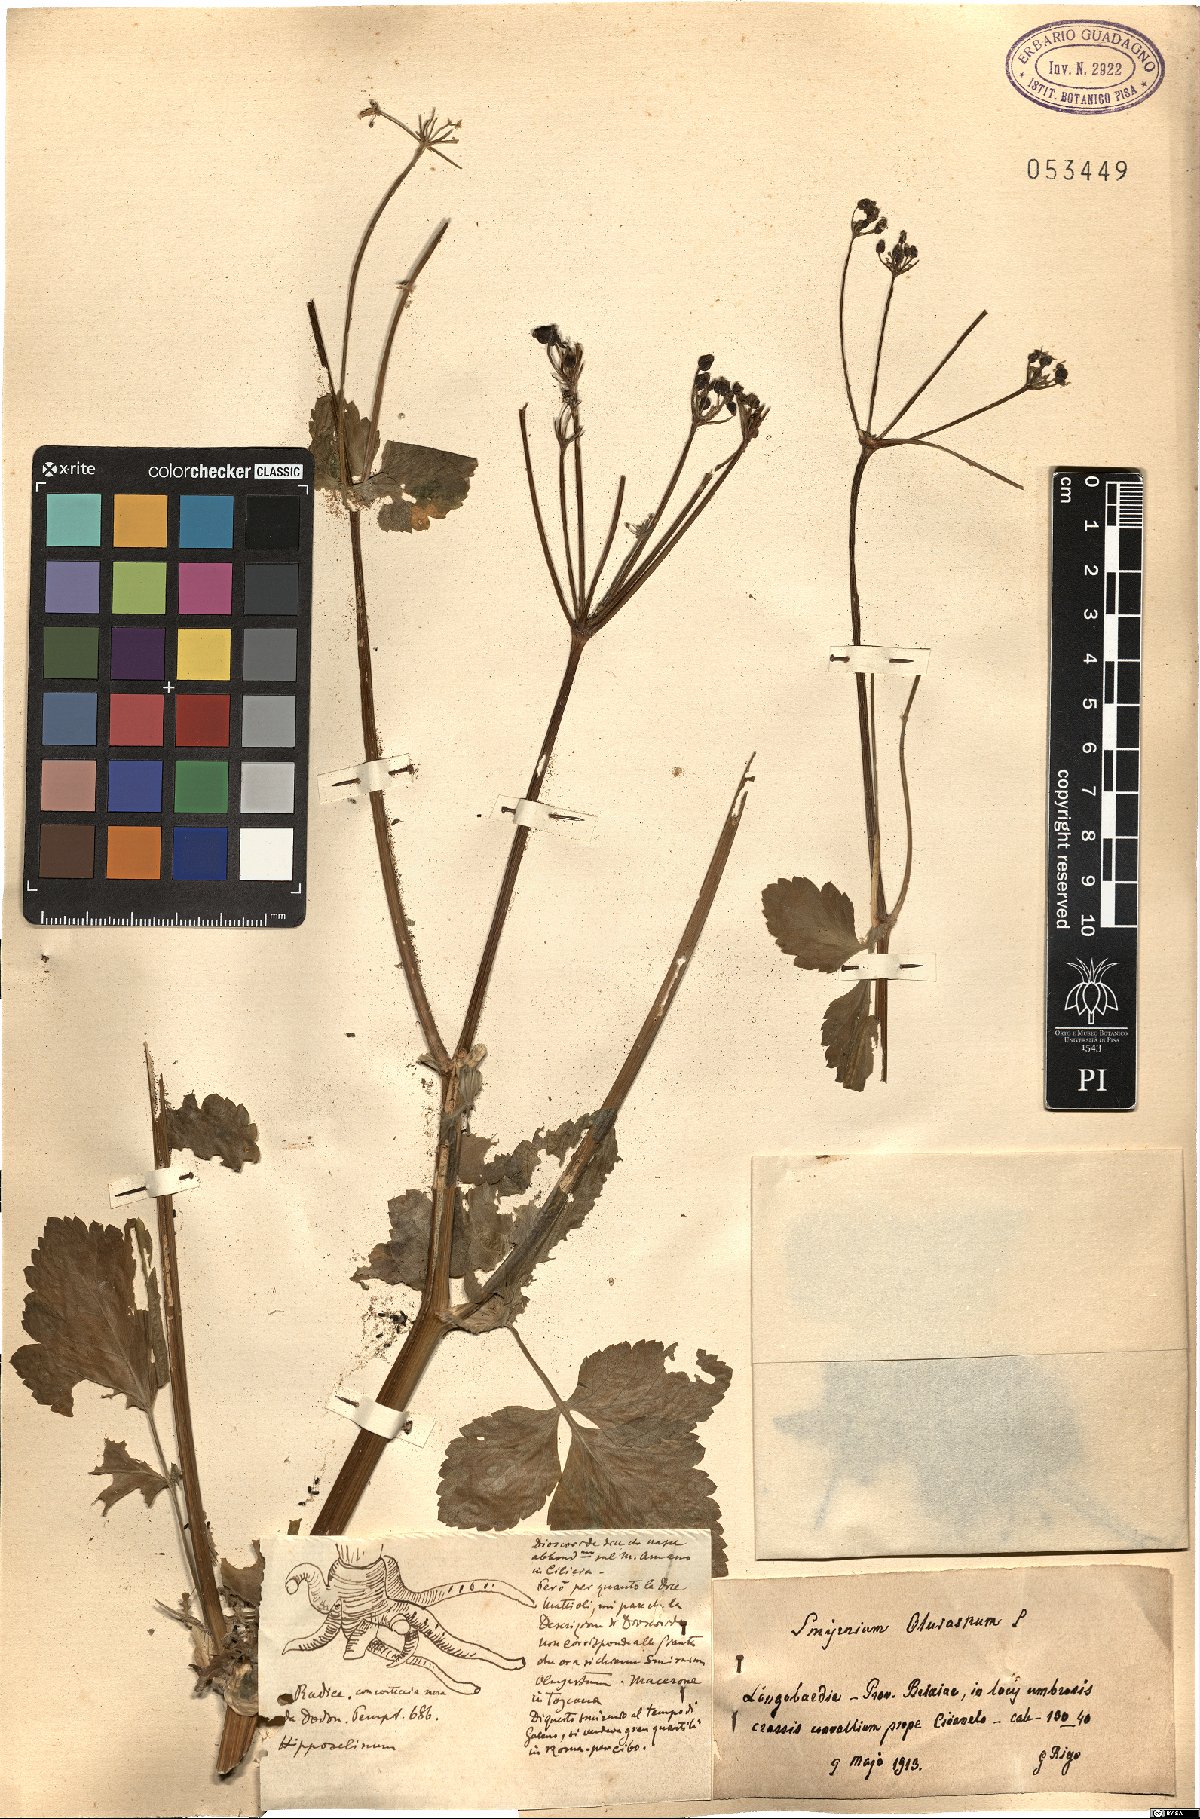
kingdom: Plantae
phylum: Tracheophyta
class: Magnoliopsida
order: Apiales
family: Apiaceae
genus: Smyrnium
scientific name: Smyrnium olusatrum
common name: Alexanders
